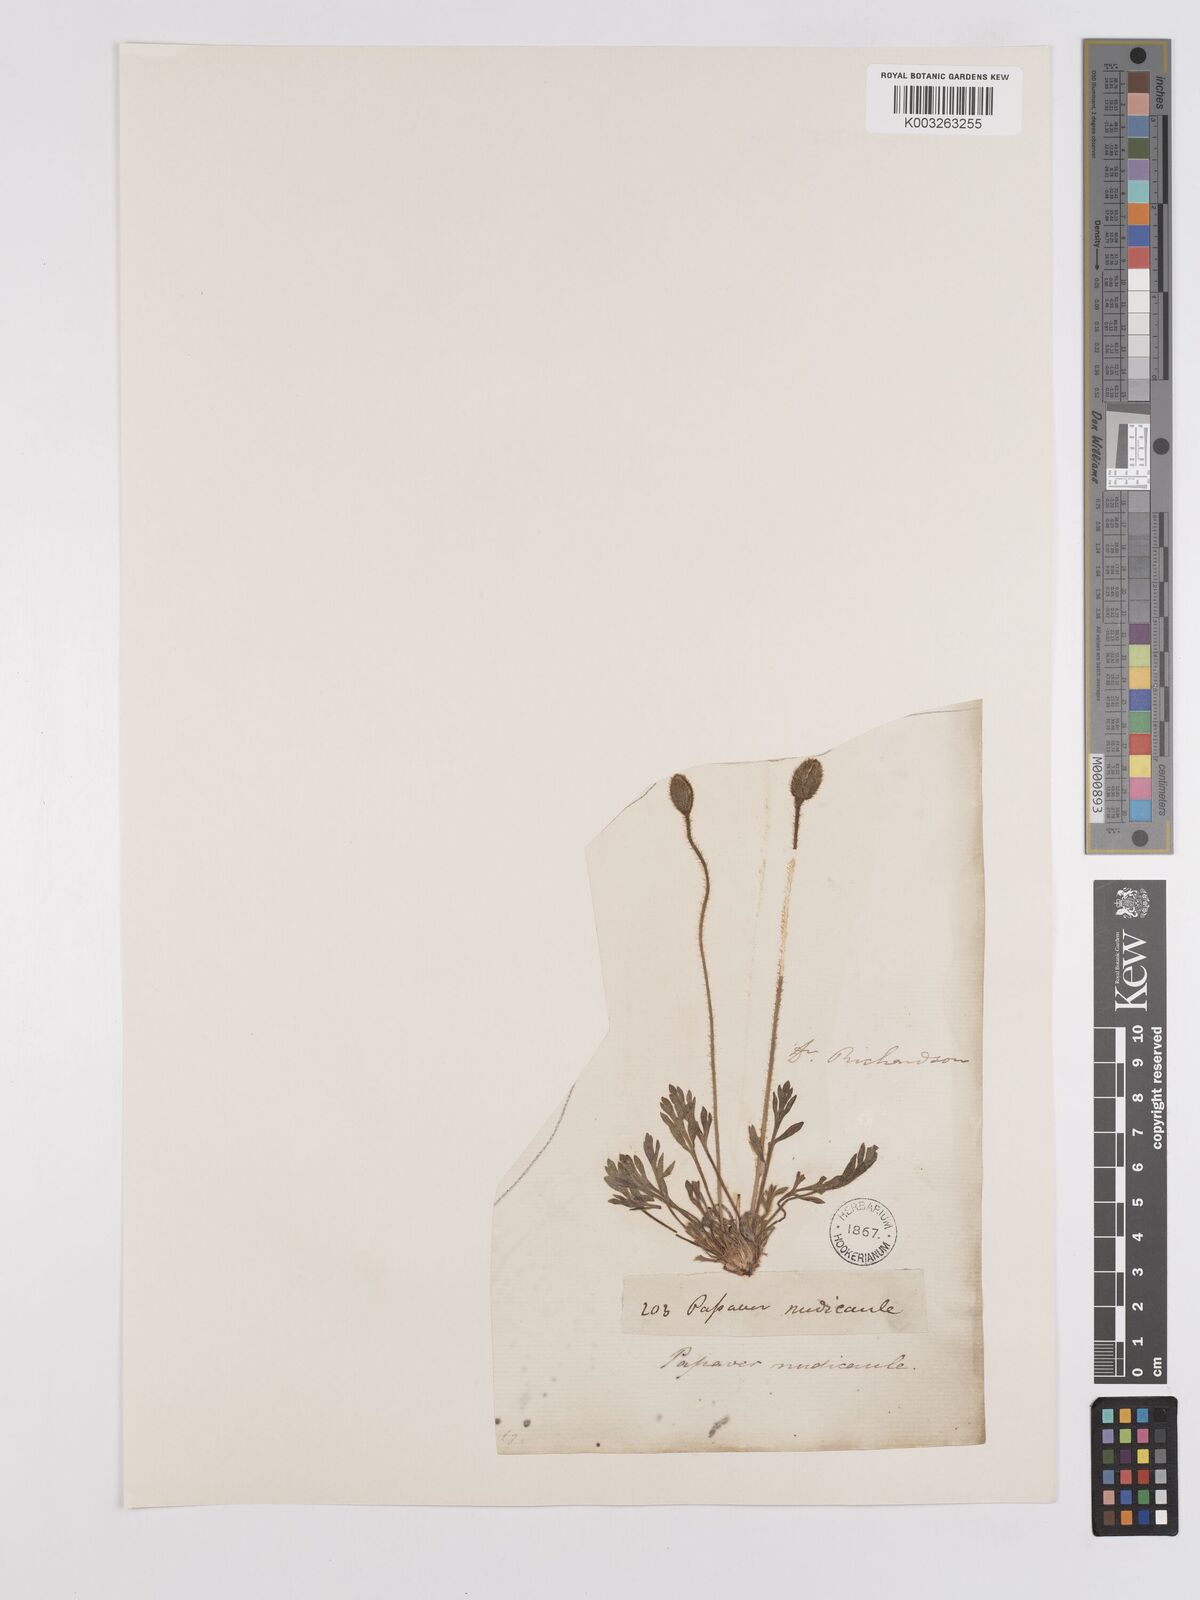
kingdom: Plantae
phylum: Tracheophyta
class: Magnoliopsida
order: Ranunculales
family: Papaveraceae
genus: Papaver
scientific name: Papaver radicatum
